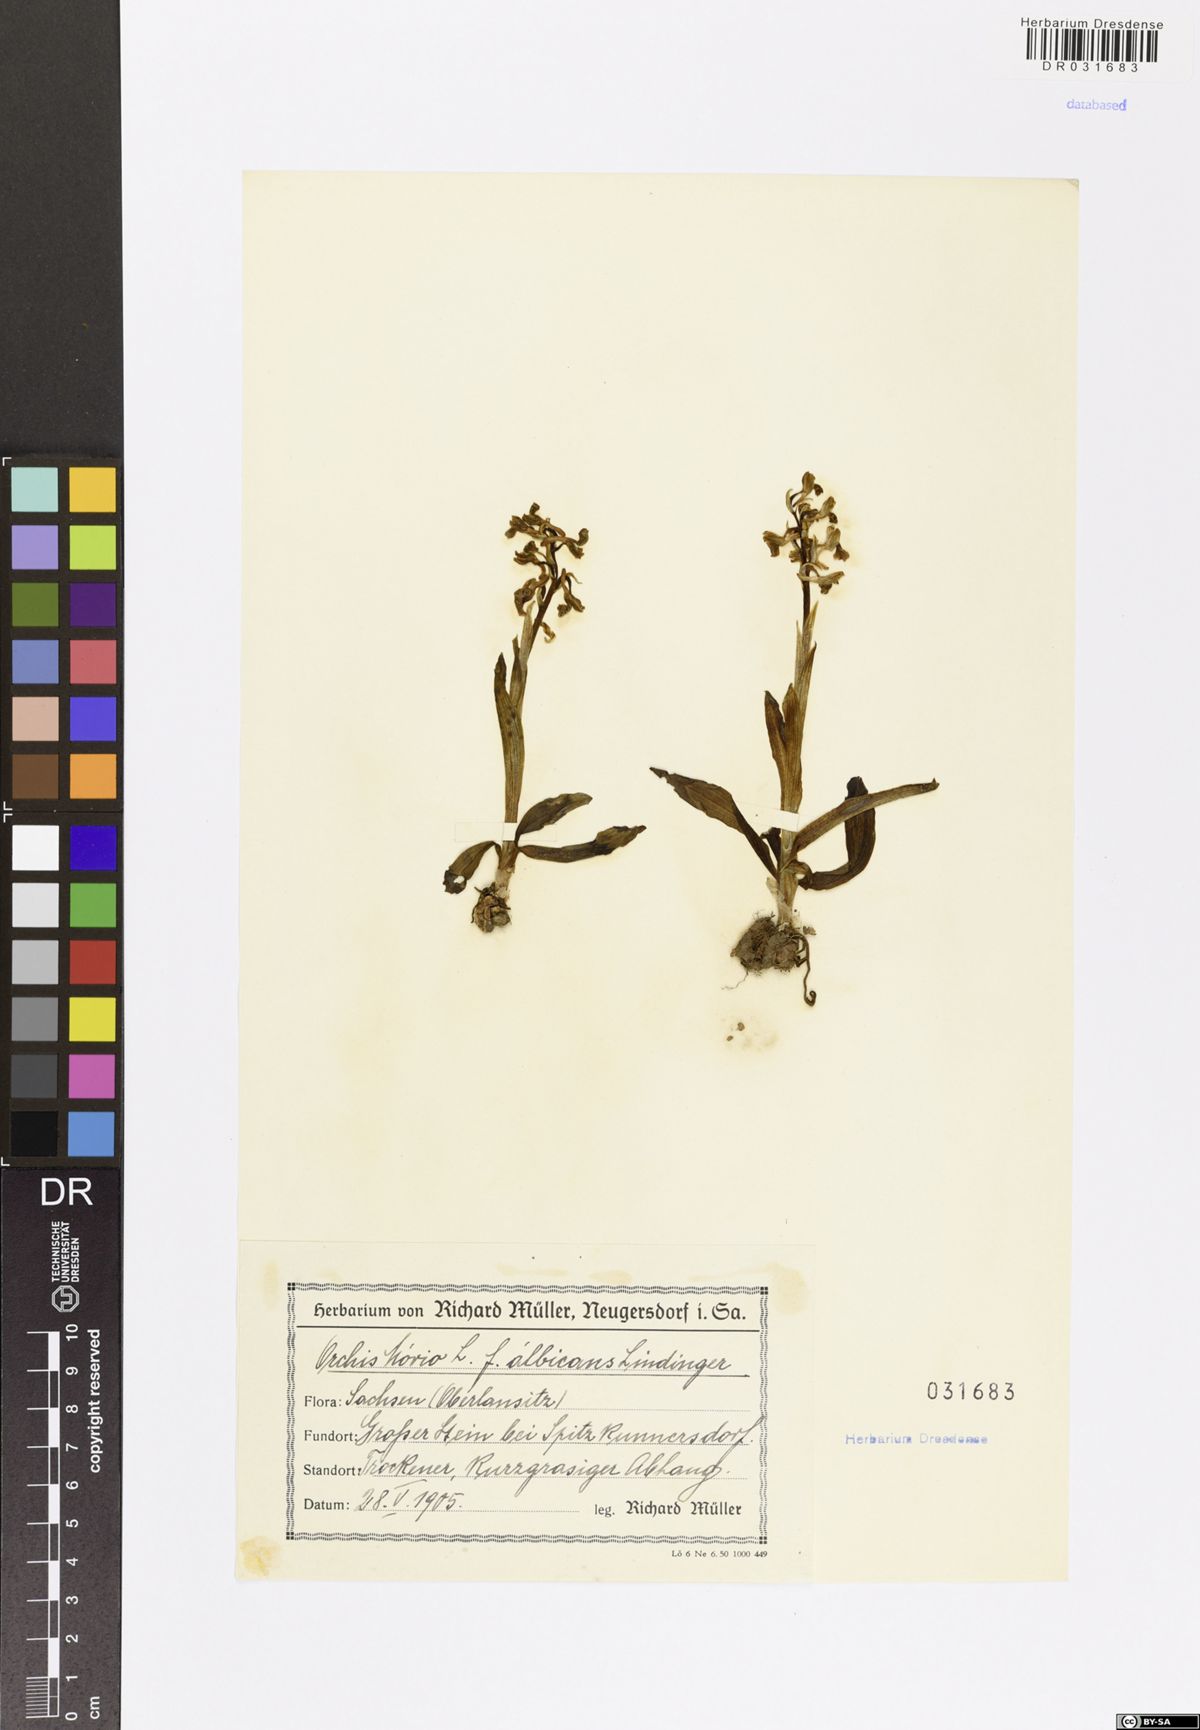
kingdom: Plantae
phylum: Tracheophyta
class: Liliopsida
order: Asparagales
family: Orchidaceae
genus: Anacamptis
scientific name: Anacamptis morio
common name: Green-winged orchid
